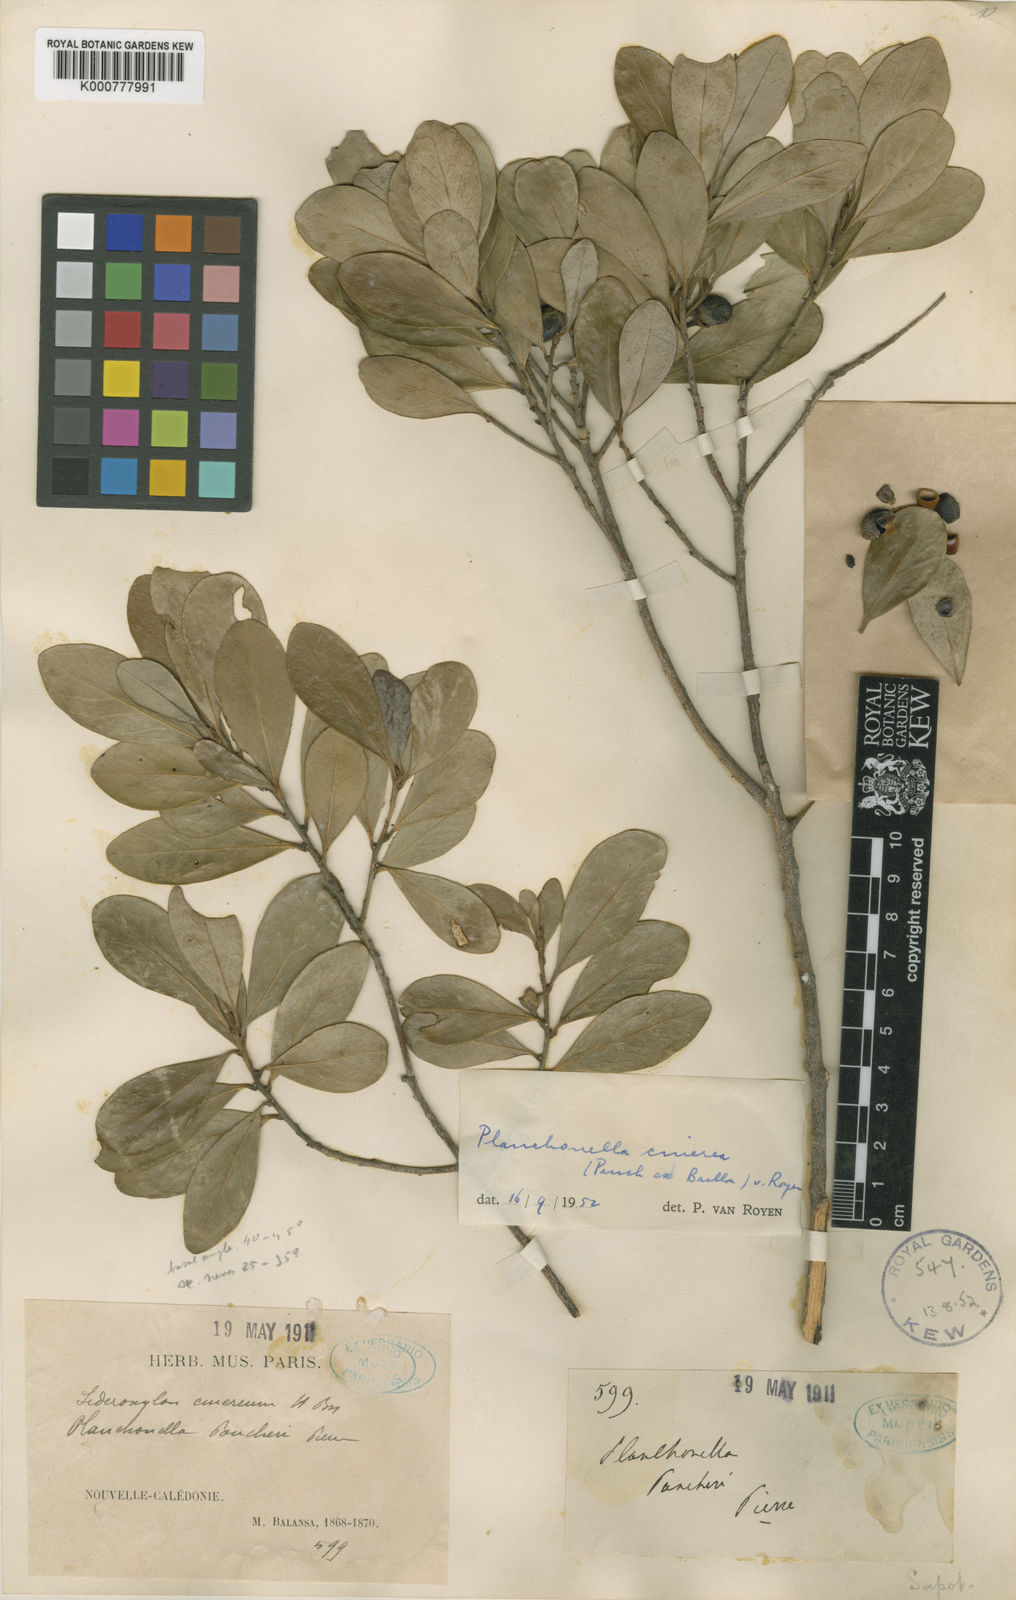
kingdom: Plantae
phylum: Tracheophyta
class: Magnoliopsida
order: Ericales
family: Sapotaceae
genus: Planchonella
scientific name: Planchonella cinerea
